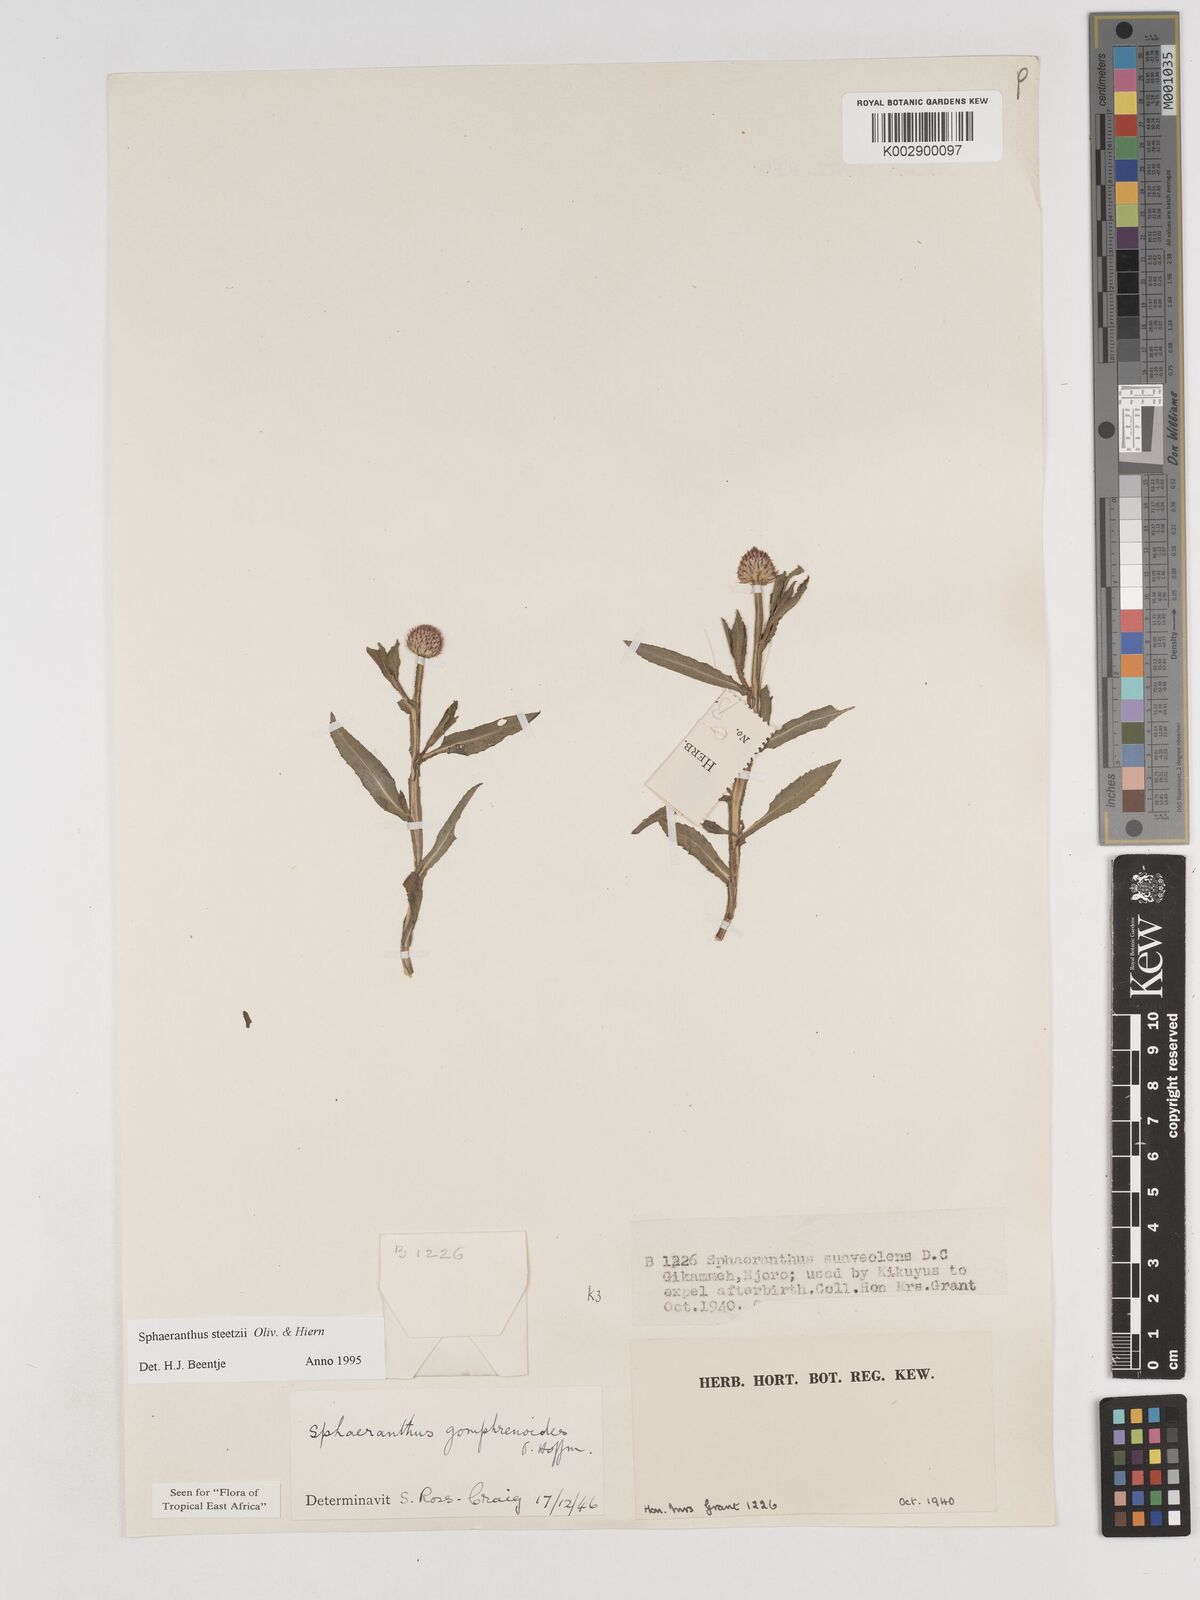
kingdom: Plantae
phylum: Tracheophyta
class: Magnoliopsida
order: Asterales
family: Asteraceae
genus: Sphaeranthus
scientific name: Sphaeranthus steetzii
